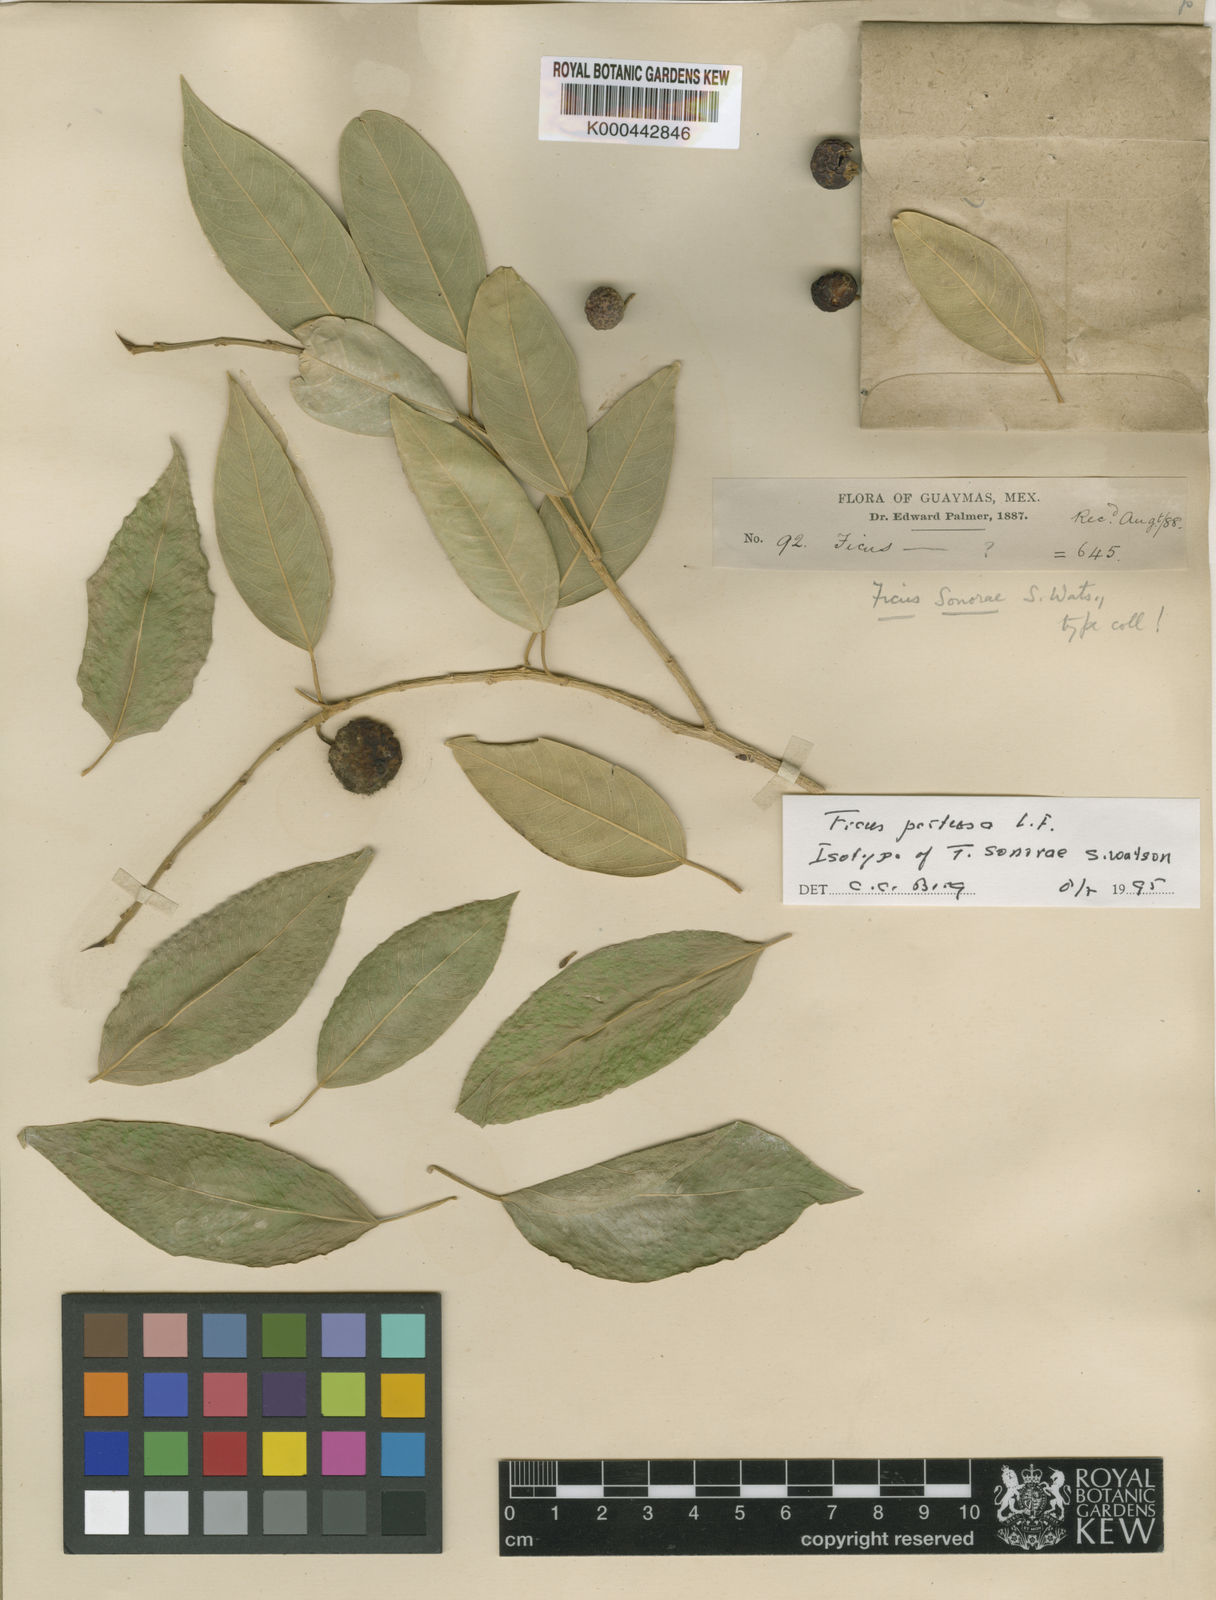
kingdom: Plantae
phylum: Tracheophyta
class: Magnoliopsida
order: Rosales
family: Moraceae
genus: Ficus
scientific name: Ficus padifolia
